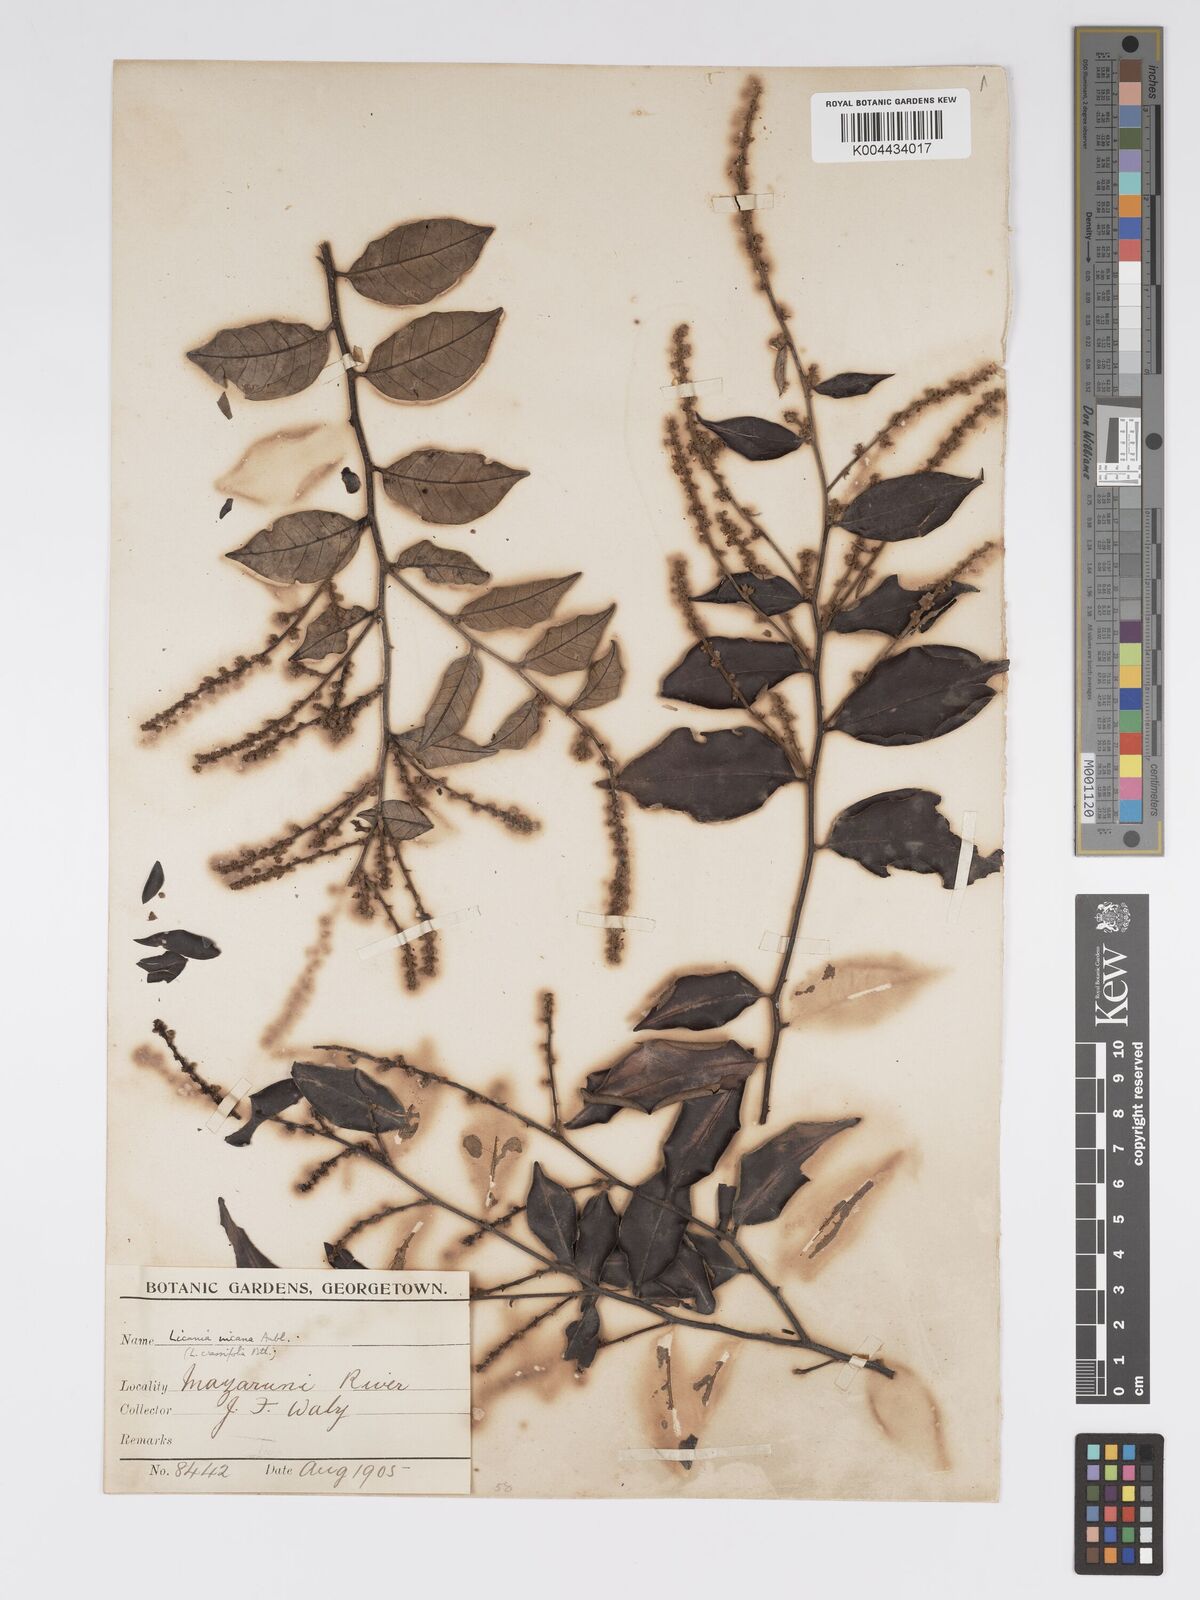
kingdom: Plantae
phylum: Tracheophyta
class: Magnoliopsida
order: Malpighiales
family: Chrysobalanaceae
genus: Licania
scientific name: Licania
